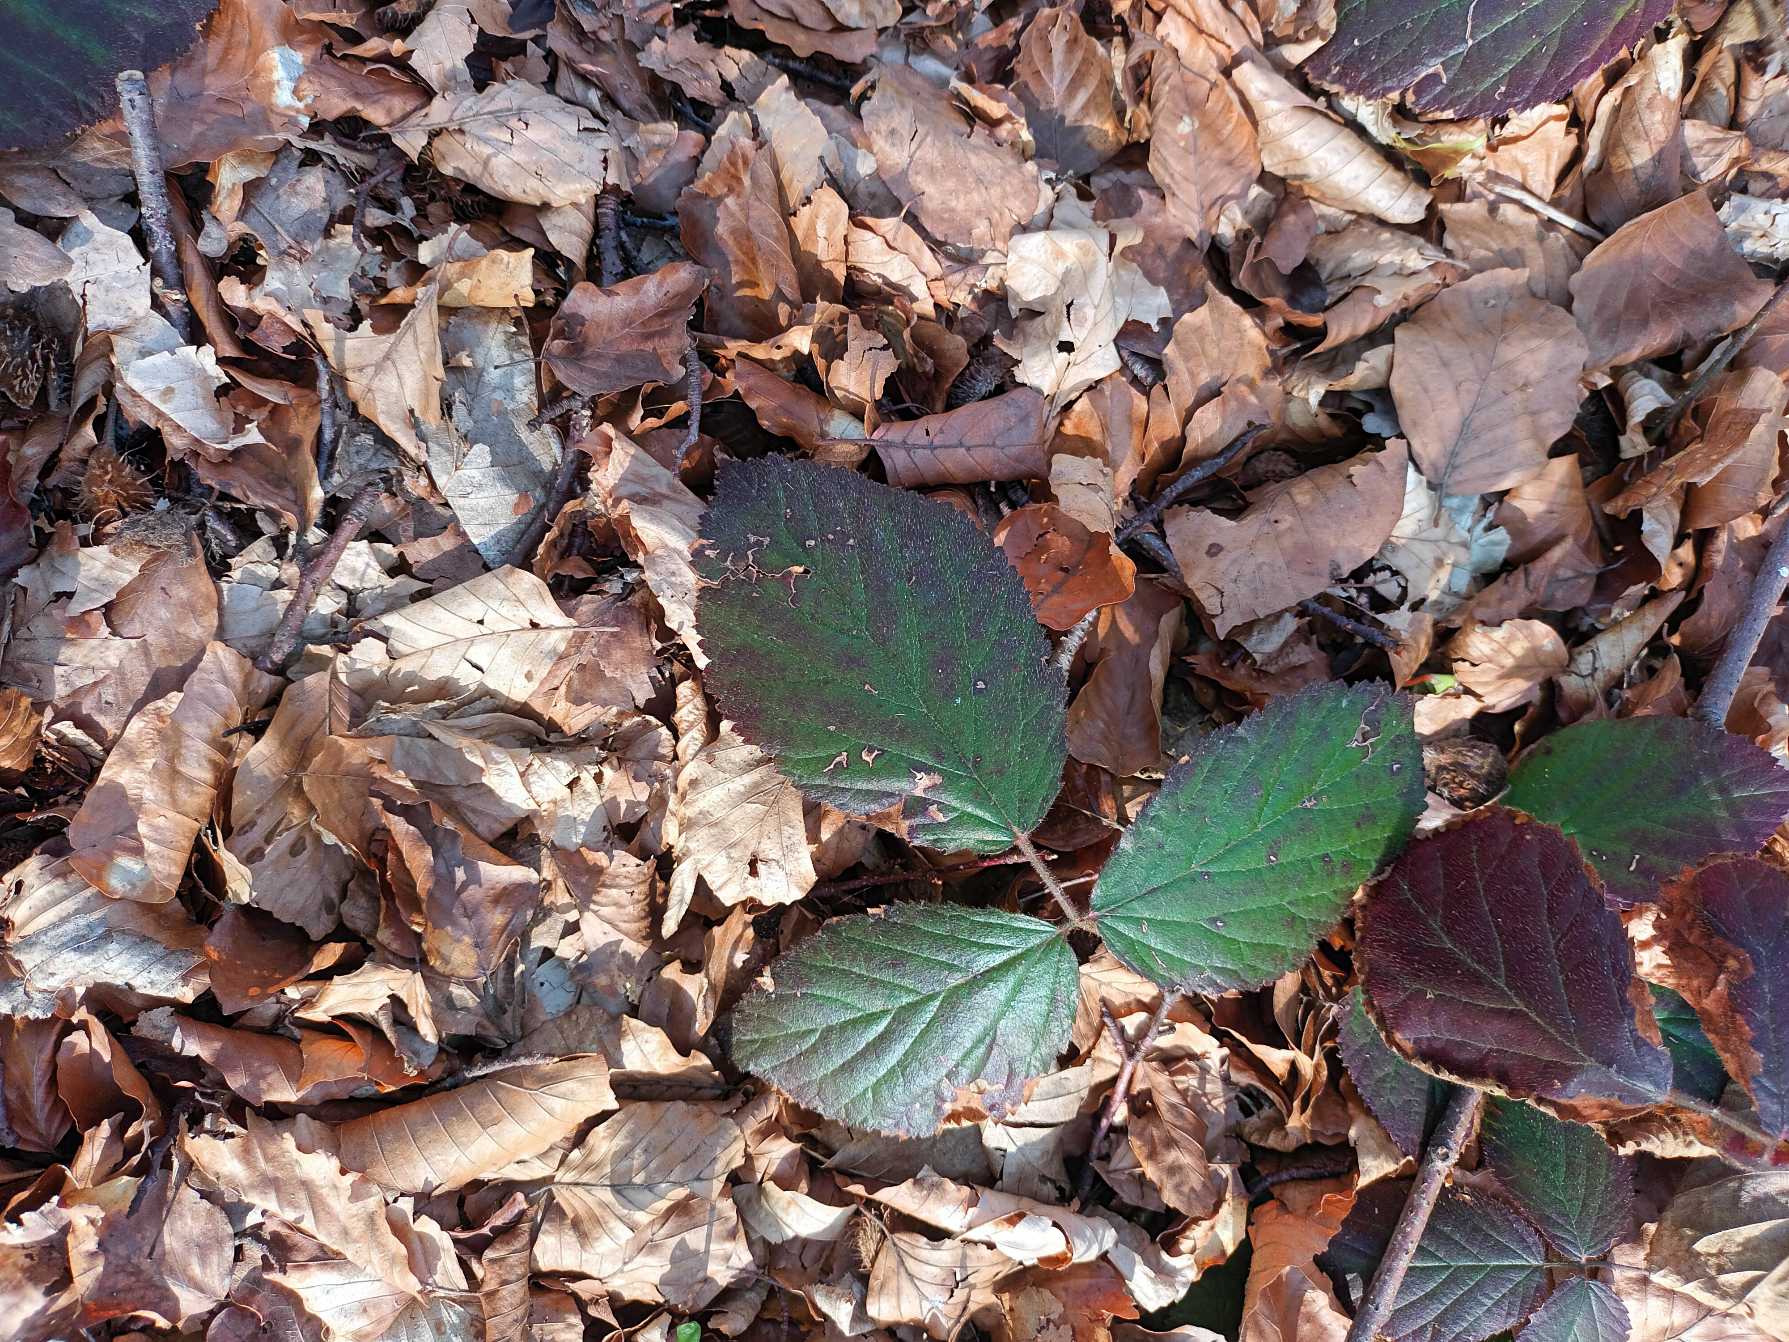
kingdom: Plantae
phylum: Tracheophyta
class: Magnoliopsida
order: Rosales
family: Rosaceae
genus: Rubus
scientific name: Rubus nigricans
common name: Trebladet brombær
